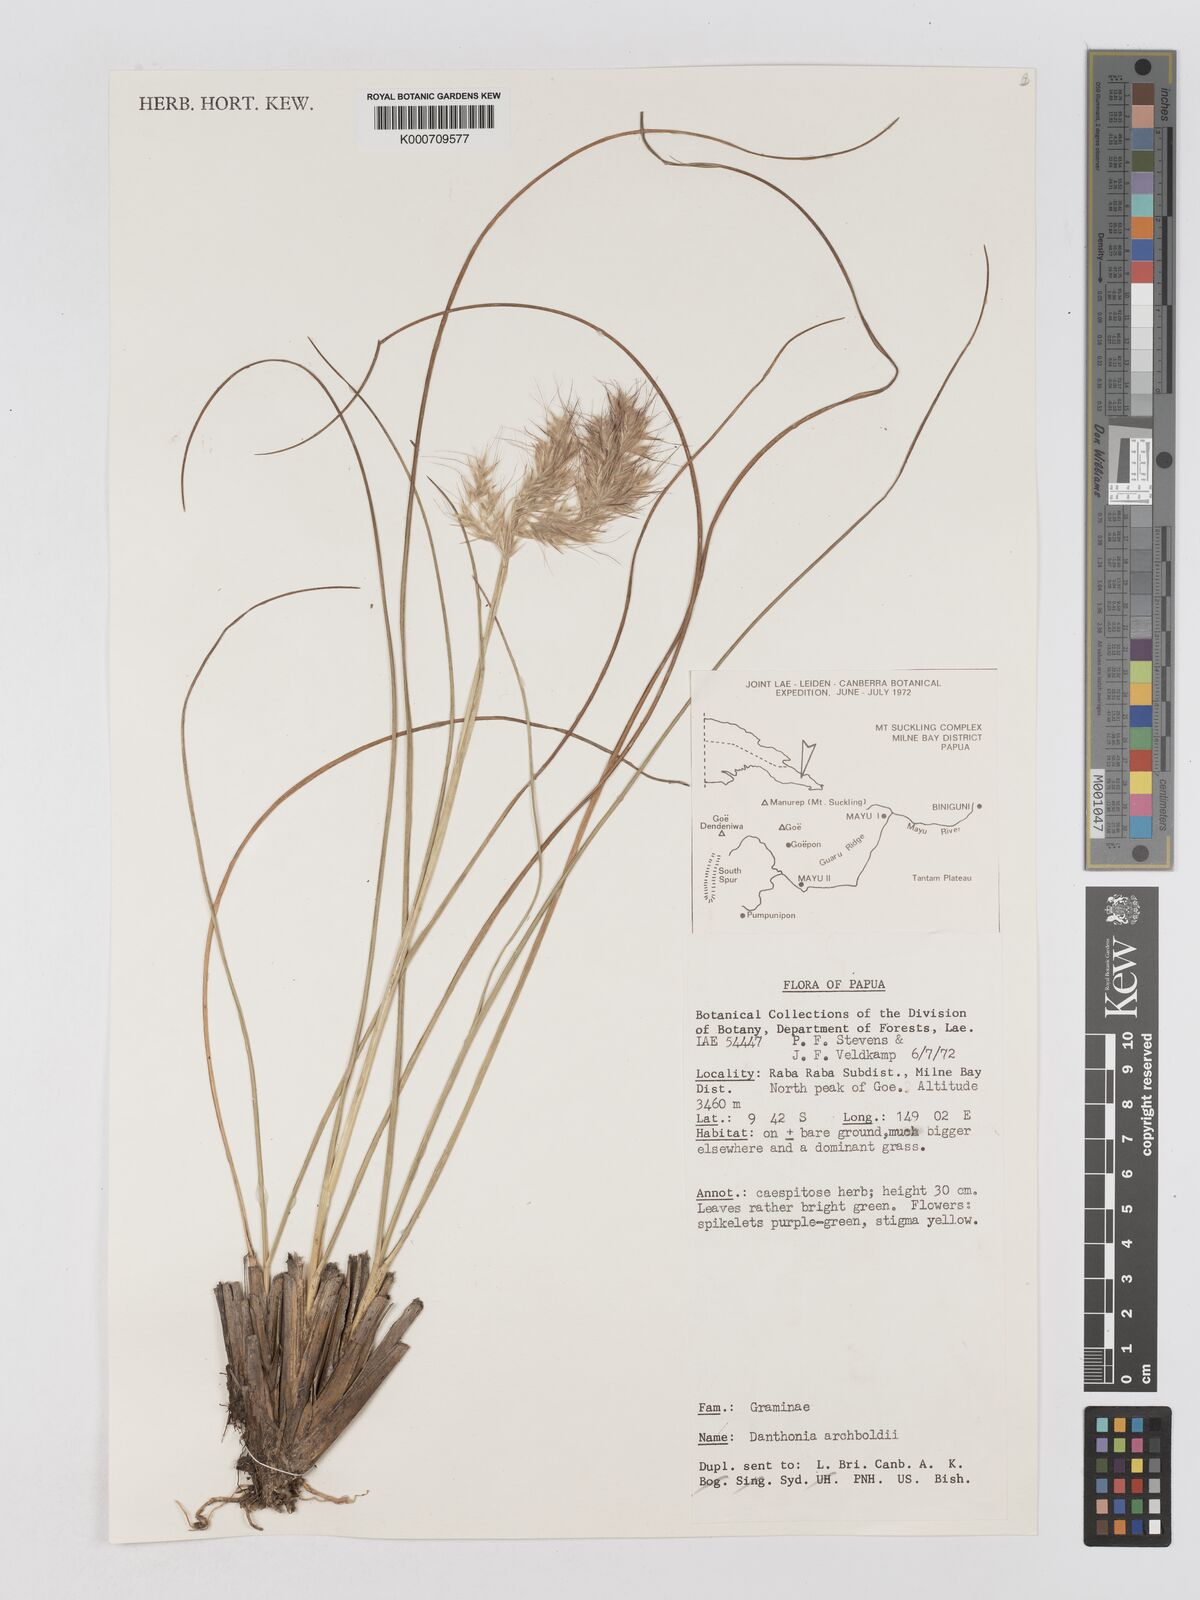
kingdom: Plantae
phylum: Tracheophyta
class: Liliopsida
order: Poales
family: Poaceae
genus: Chimaerochloa
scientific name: Chimaerochloa archboldii
